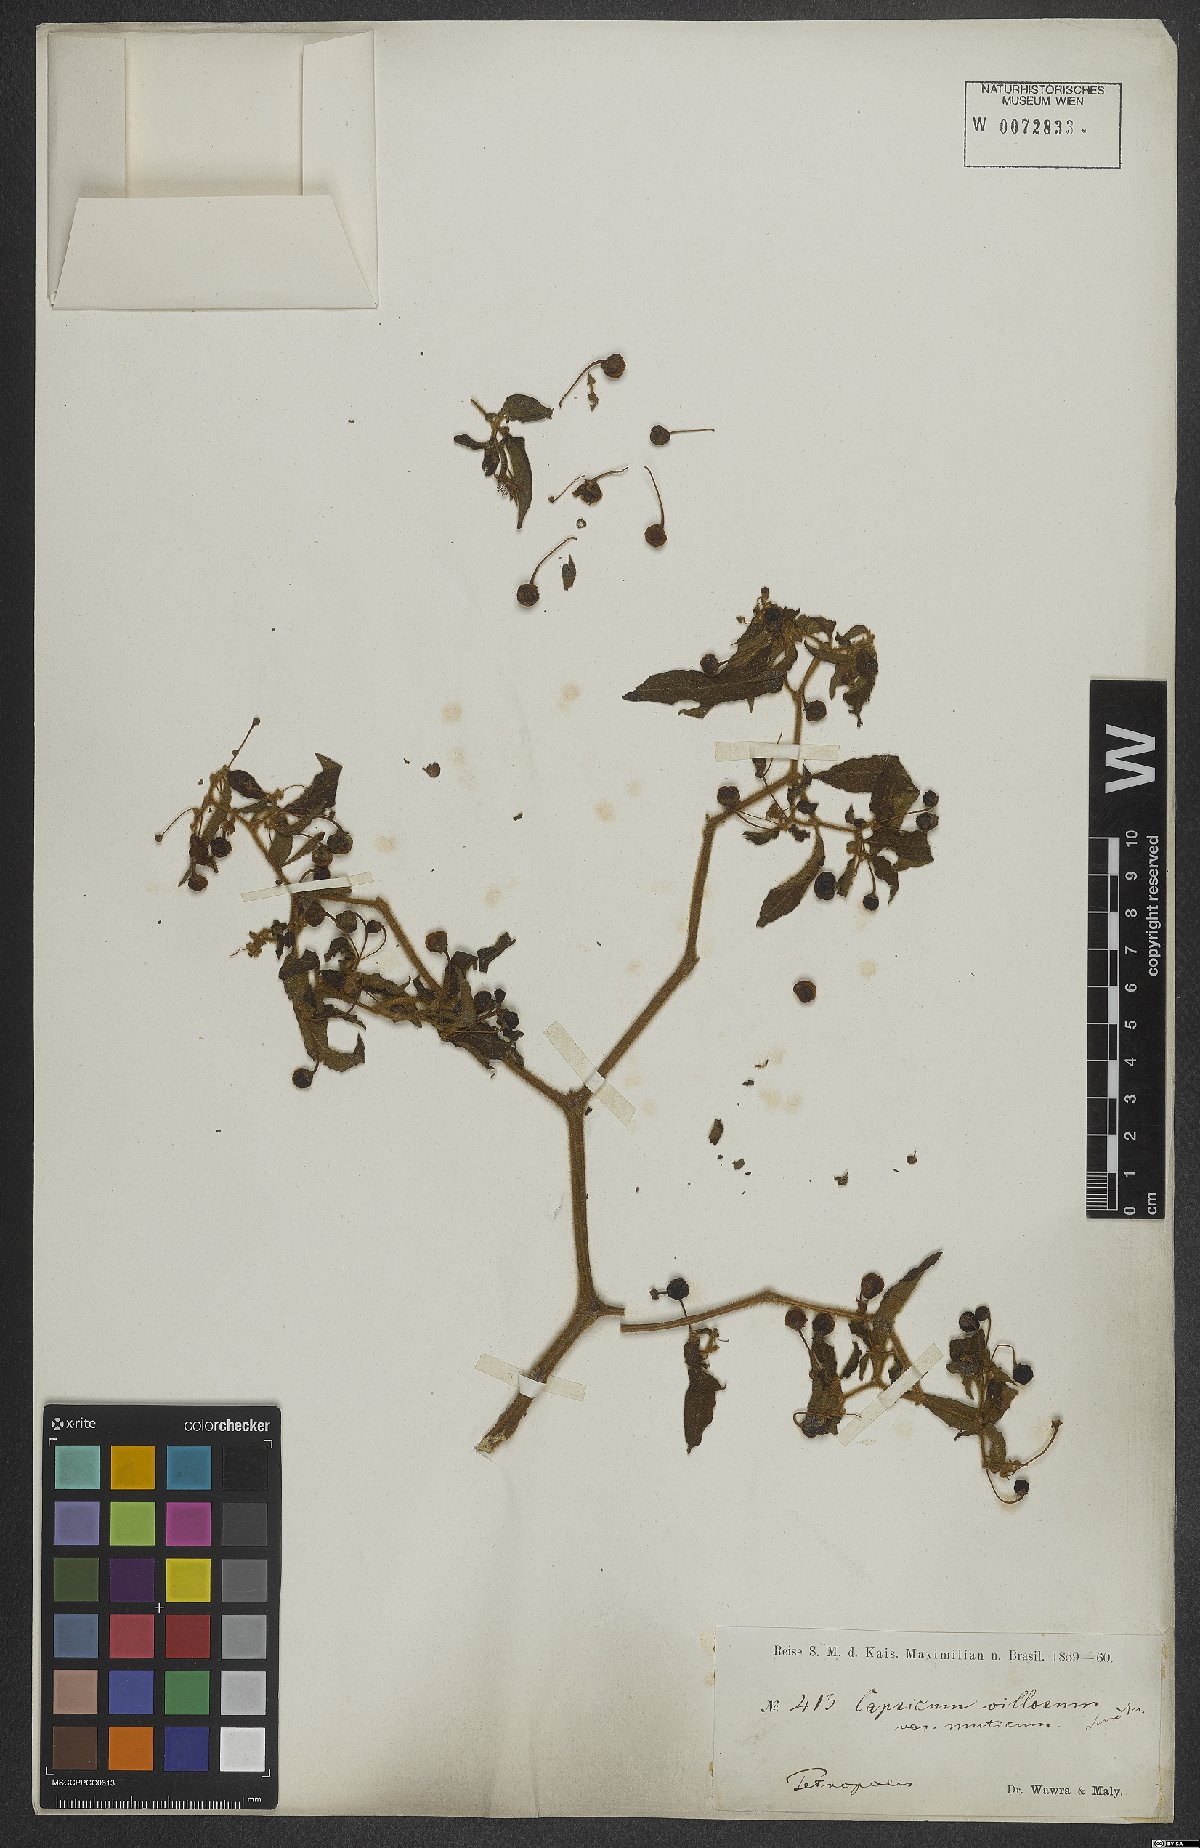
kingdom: Plantae
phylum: Tracheophyta
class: Magnoliopsida
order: Solanales
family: Solanaceae
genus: Capsicum
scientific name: Capsicum muticum
